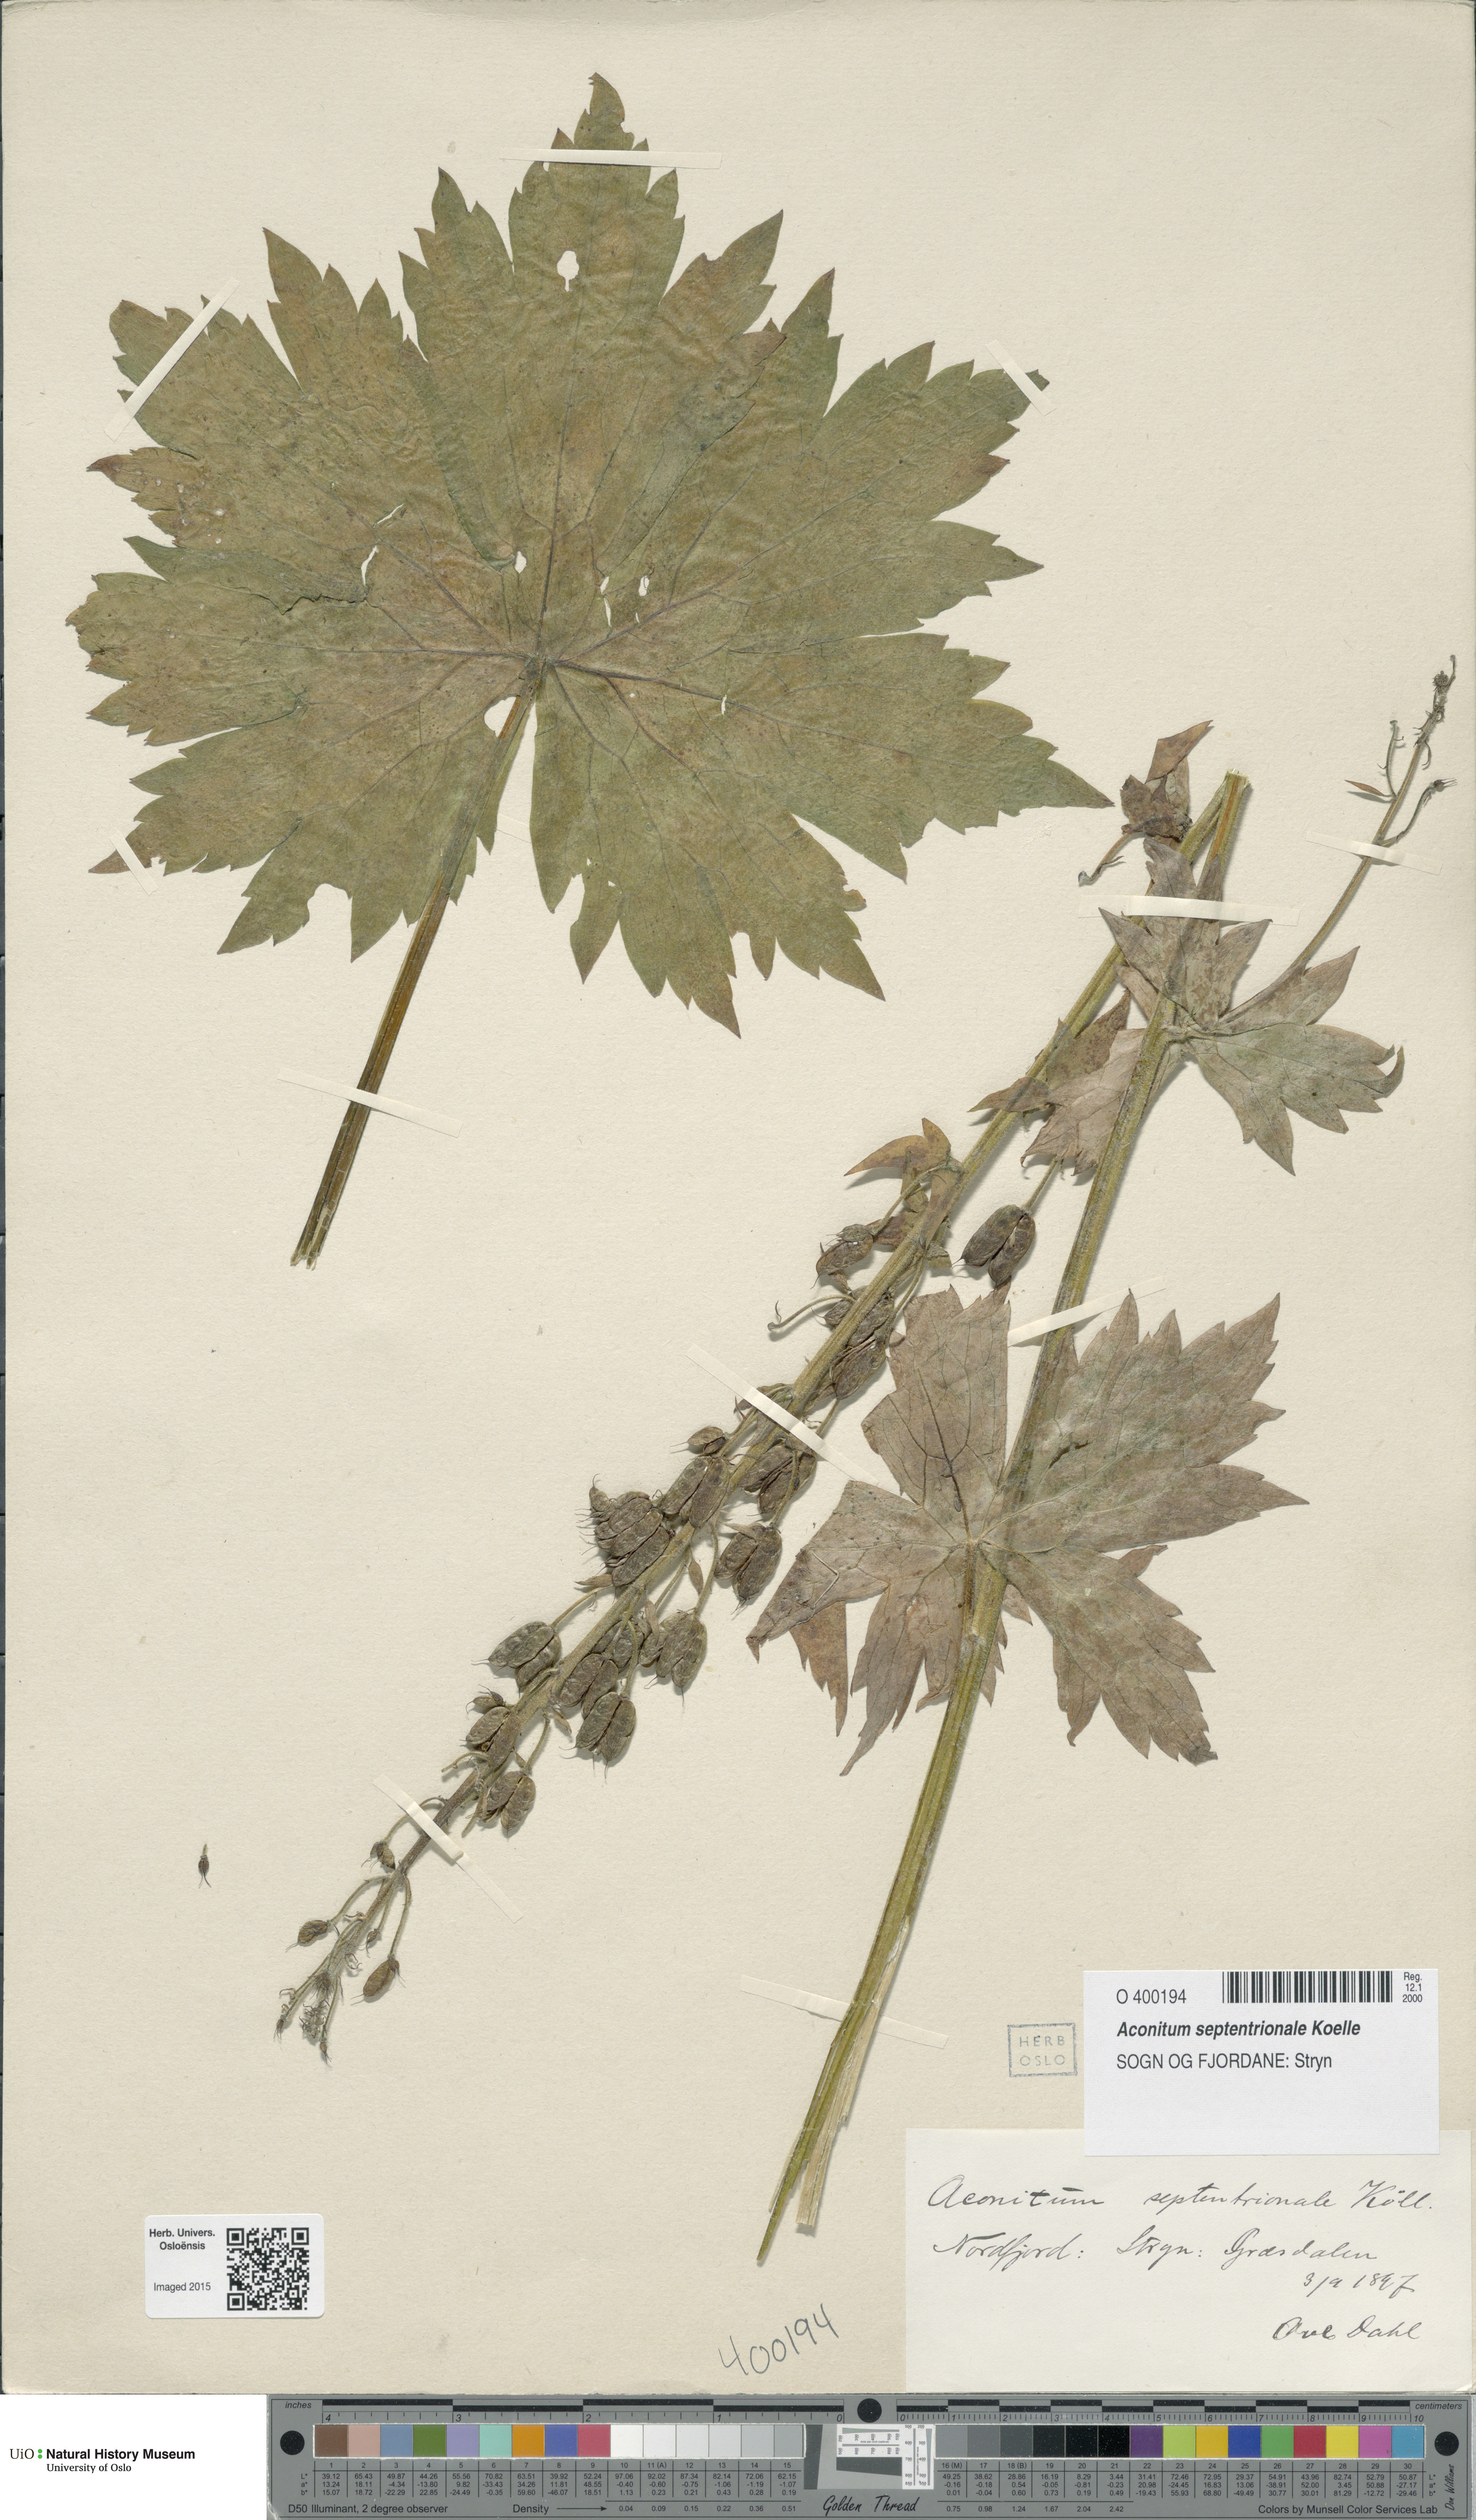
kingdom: Plantae
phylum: Tracheophyta
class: Magnoliopsida
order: Ranunculales
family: Ranunculaceae
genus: Aconitum
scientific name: Aconitum septentrionale
